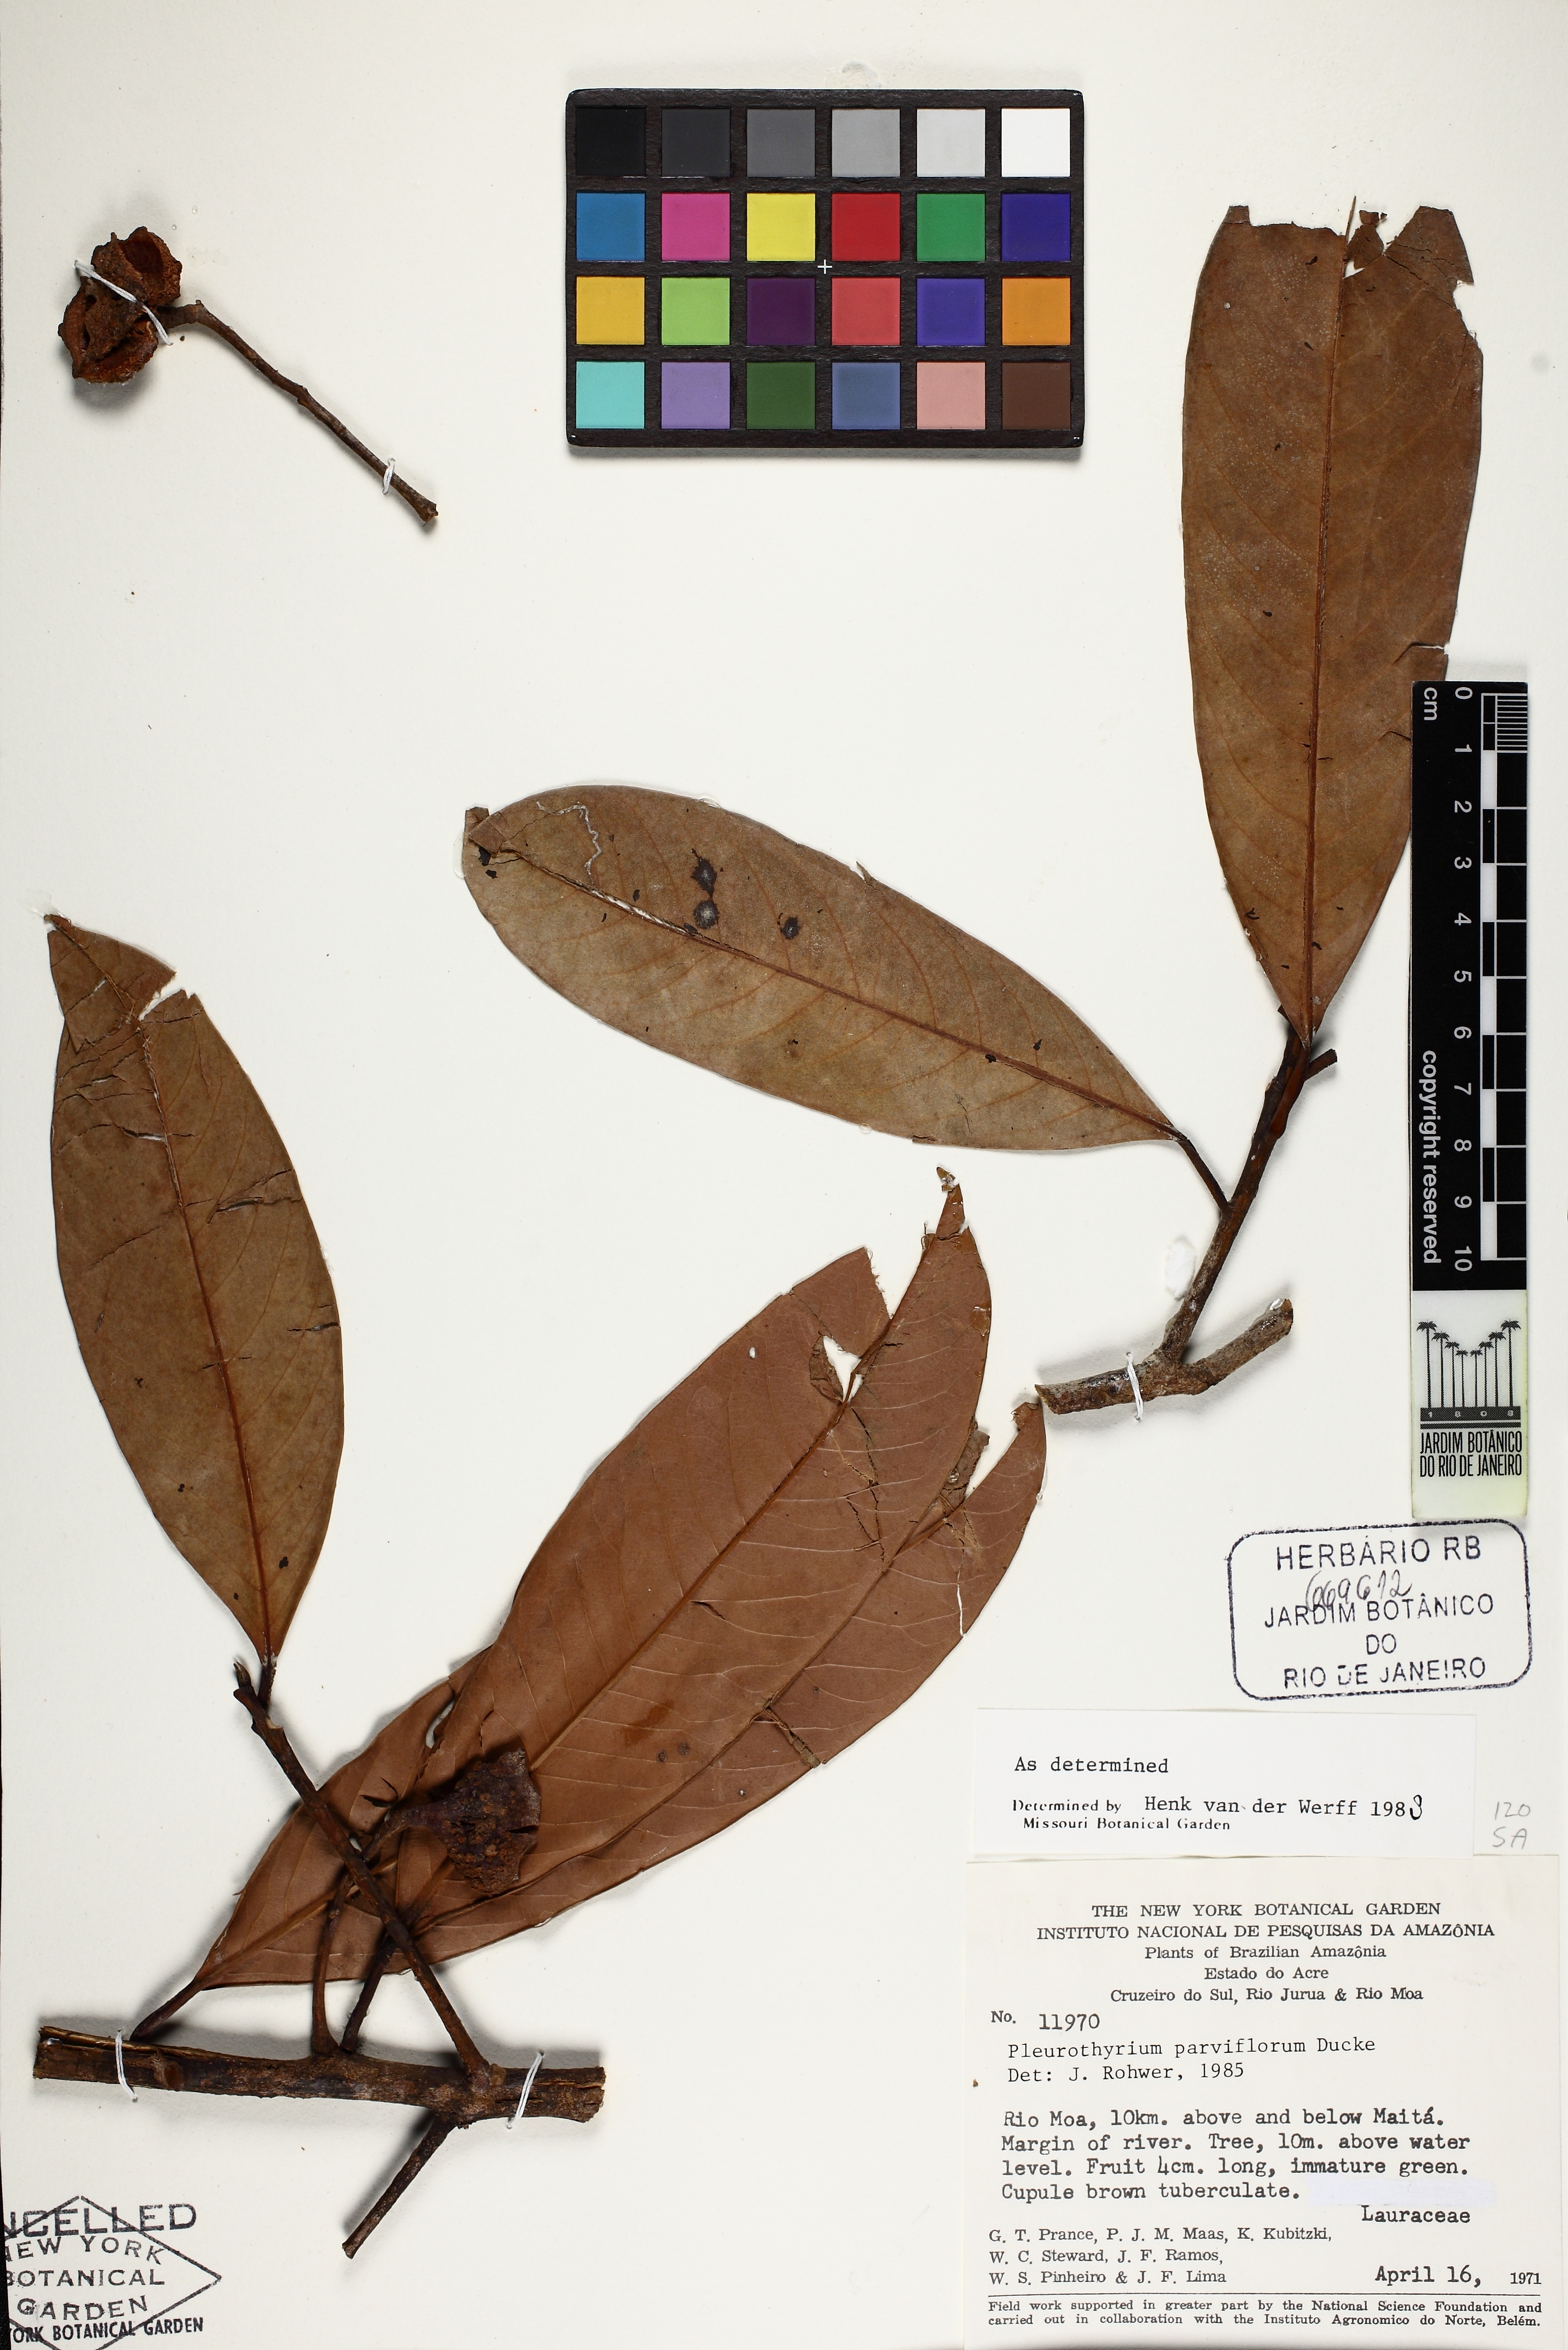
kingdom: Plantae
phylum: Tracheophyta
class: Magnoliopsida
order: Laurales
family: Lauraceae
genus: Pleurothyrium
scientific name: Pleurothyrium parviflorum
